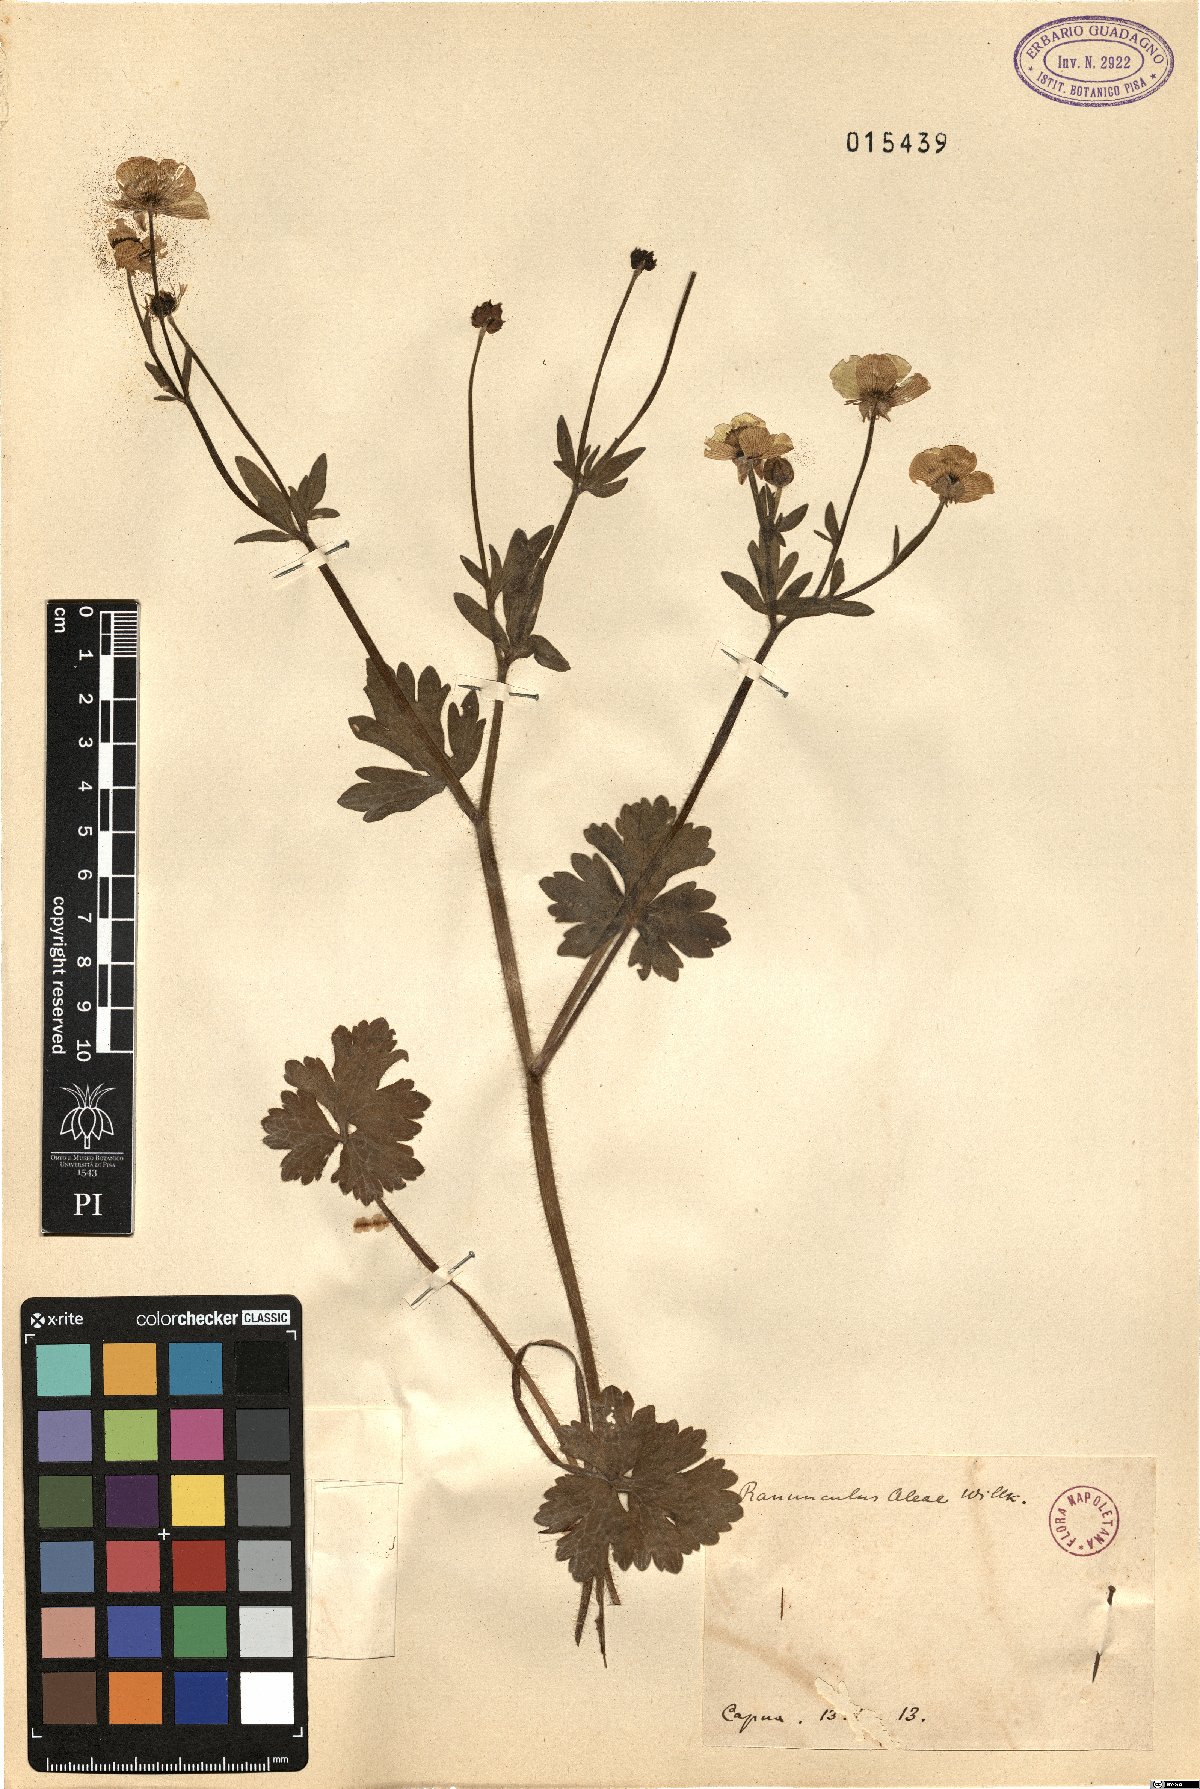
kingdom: Plantae
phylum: Tracheophyta
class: Magnoliopsida
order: Ranunculales
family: Ranunculaceae
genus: Ranunculus
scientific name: Ranunculus neapolitanus
